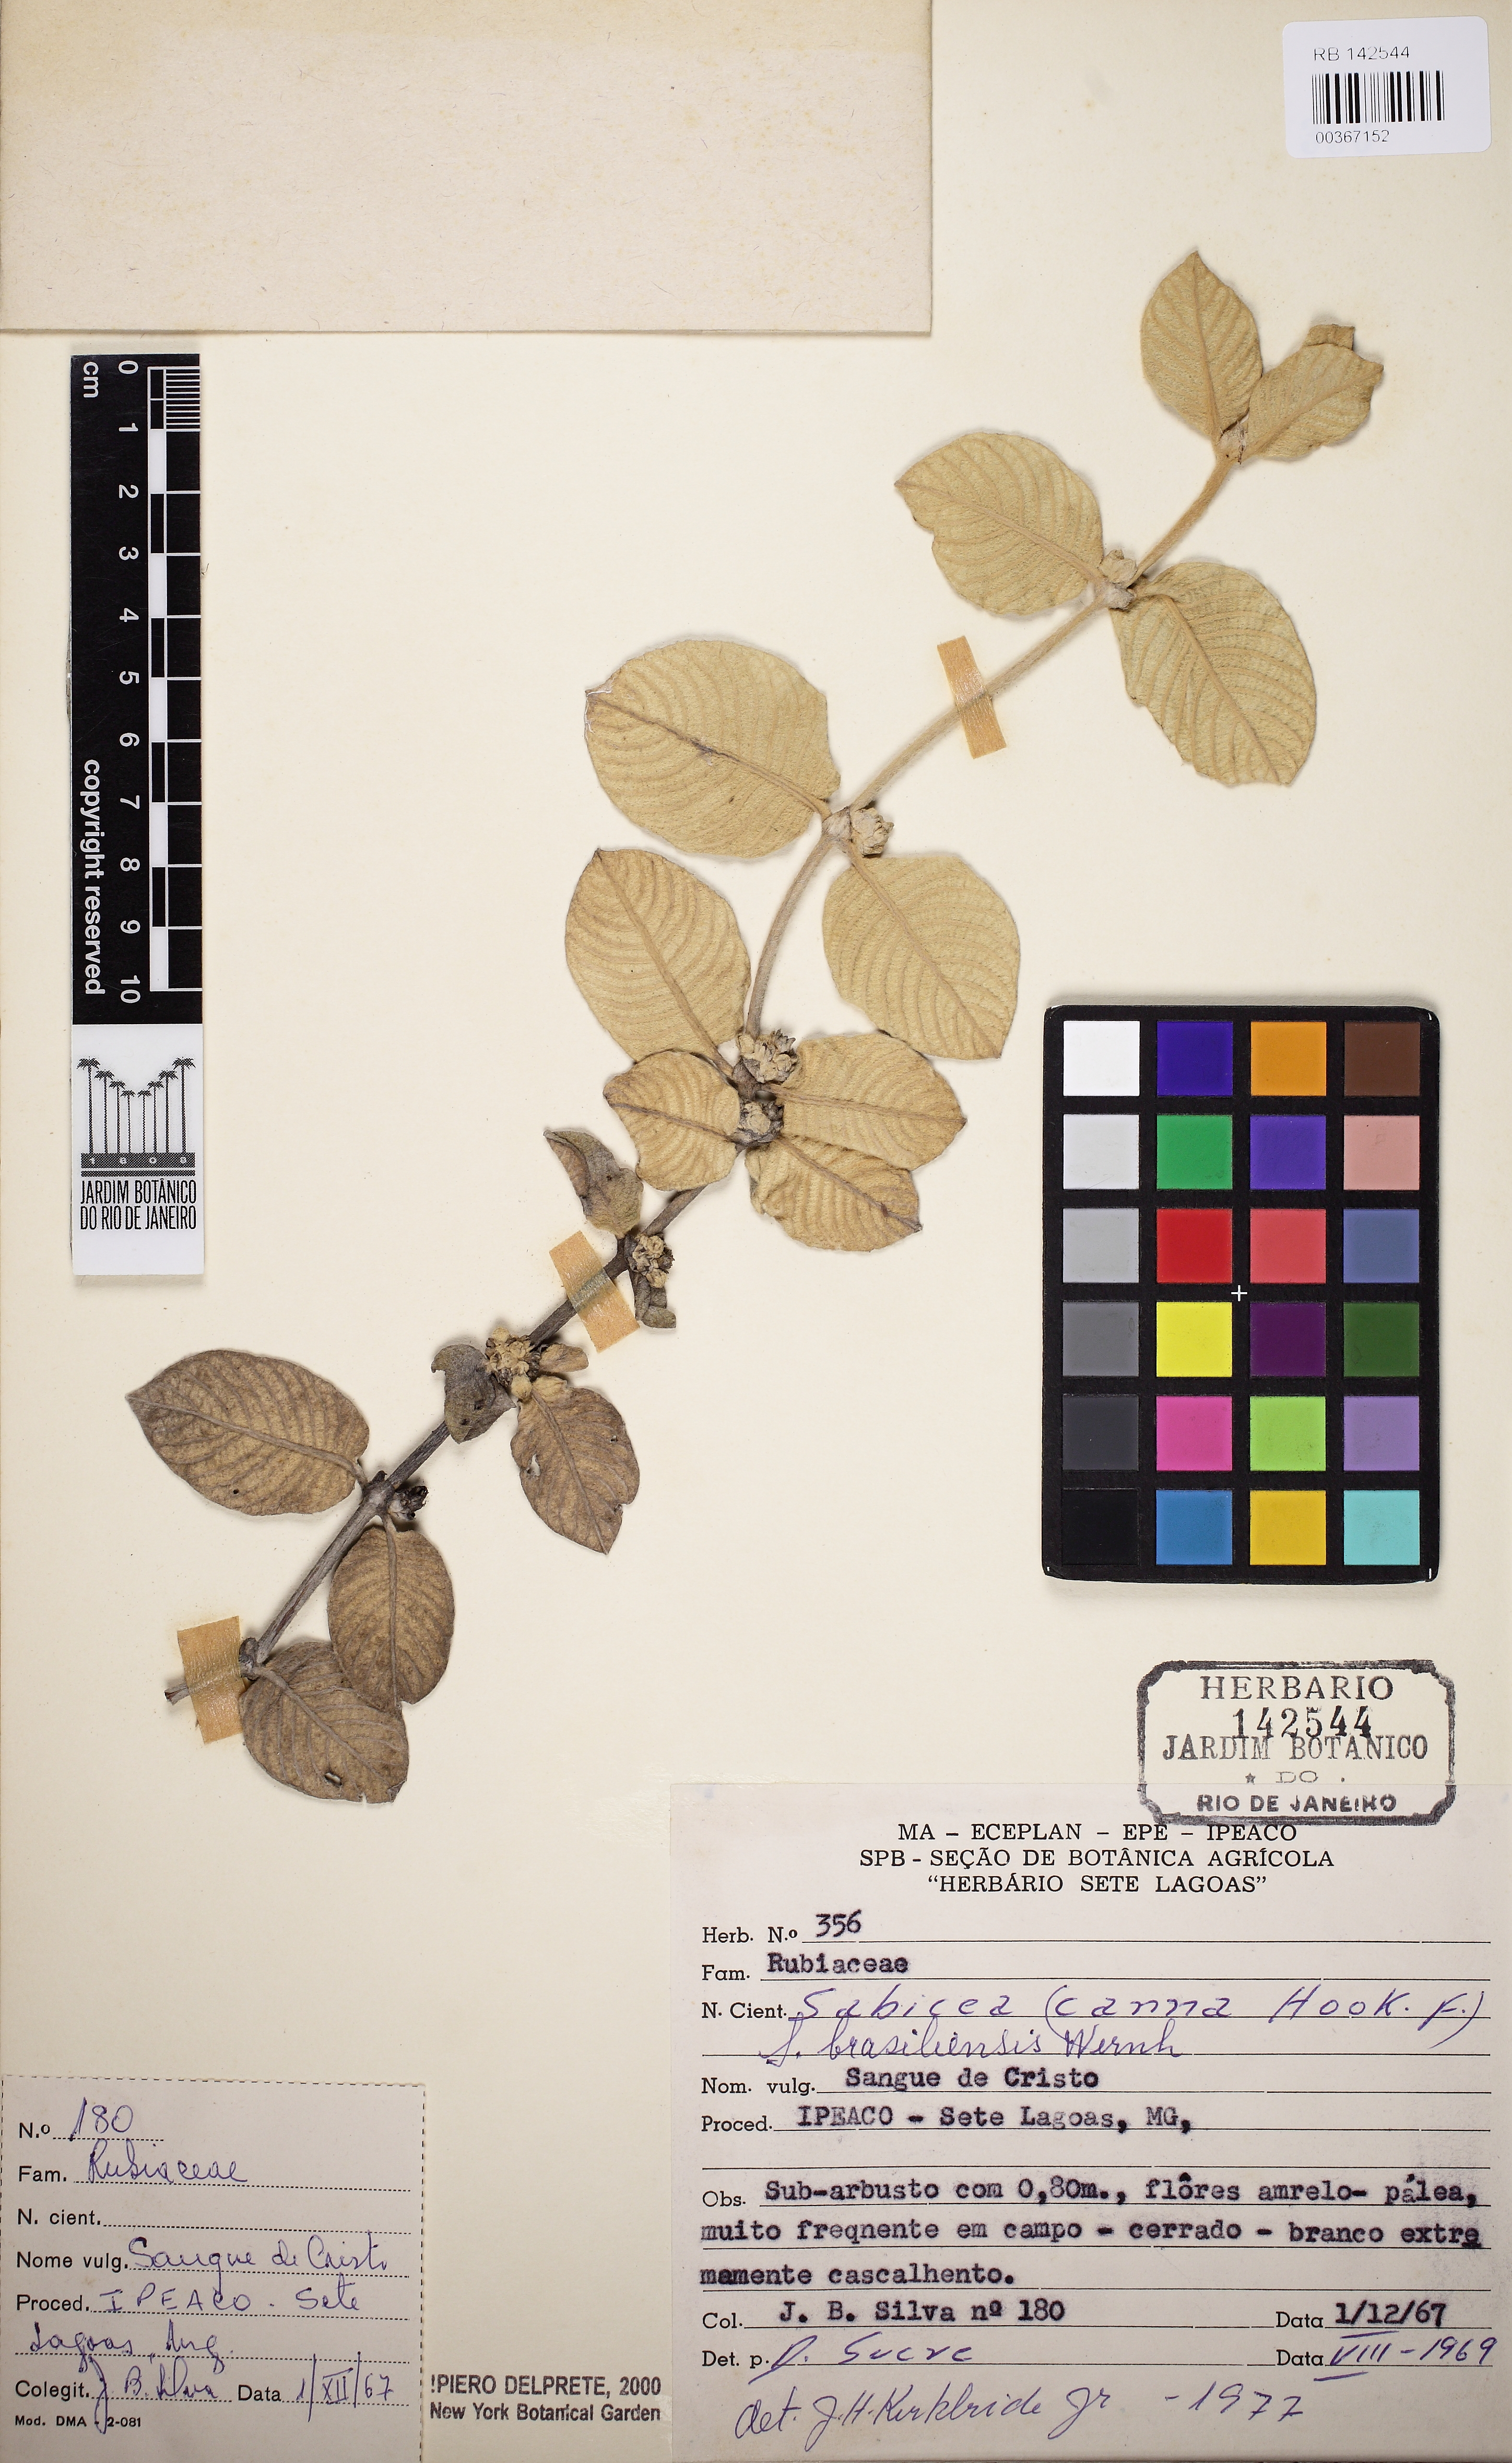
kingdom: Plantae
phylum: Tracheophyta
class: Magnoliopsida
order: Gentianales
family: Rubiaceae
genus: Sabicea
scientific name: Sabicea brasiliensis
